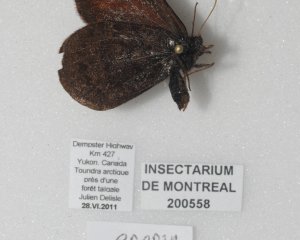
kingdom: Animalia
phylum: Arthropoda
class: Insecta
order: Lepidoptera
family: Nymphalidae
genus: Erebia
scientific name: Erebia rossii
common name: Ross's Alpine
